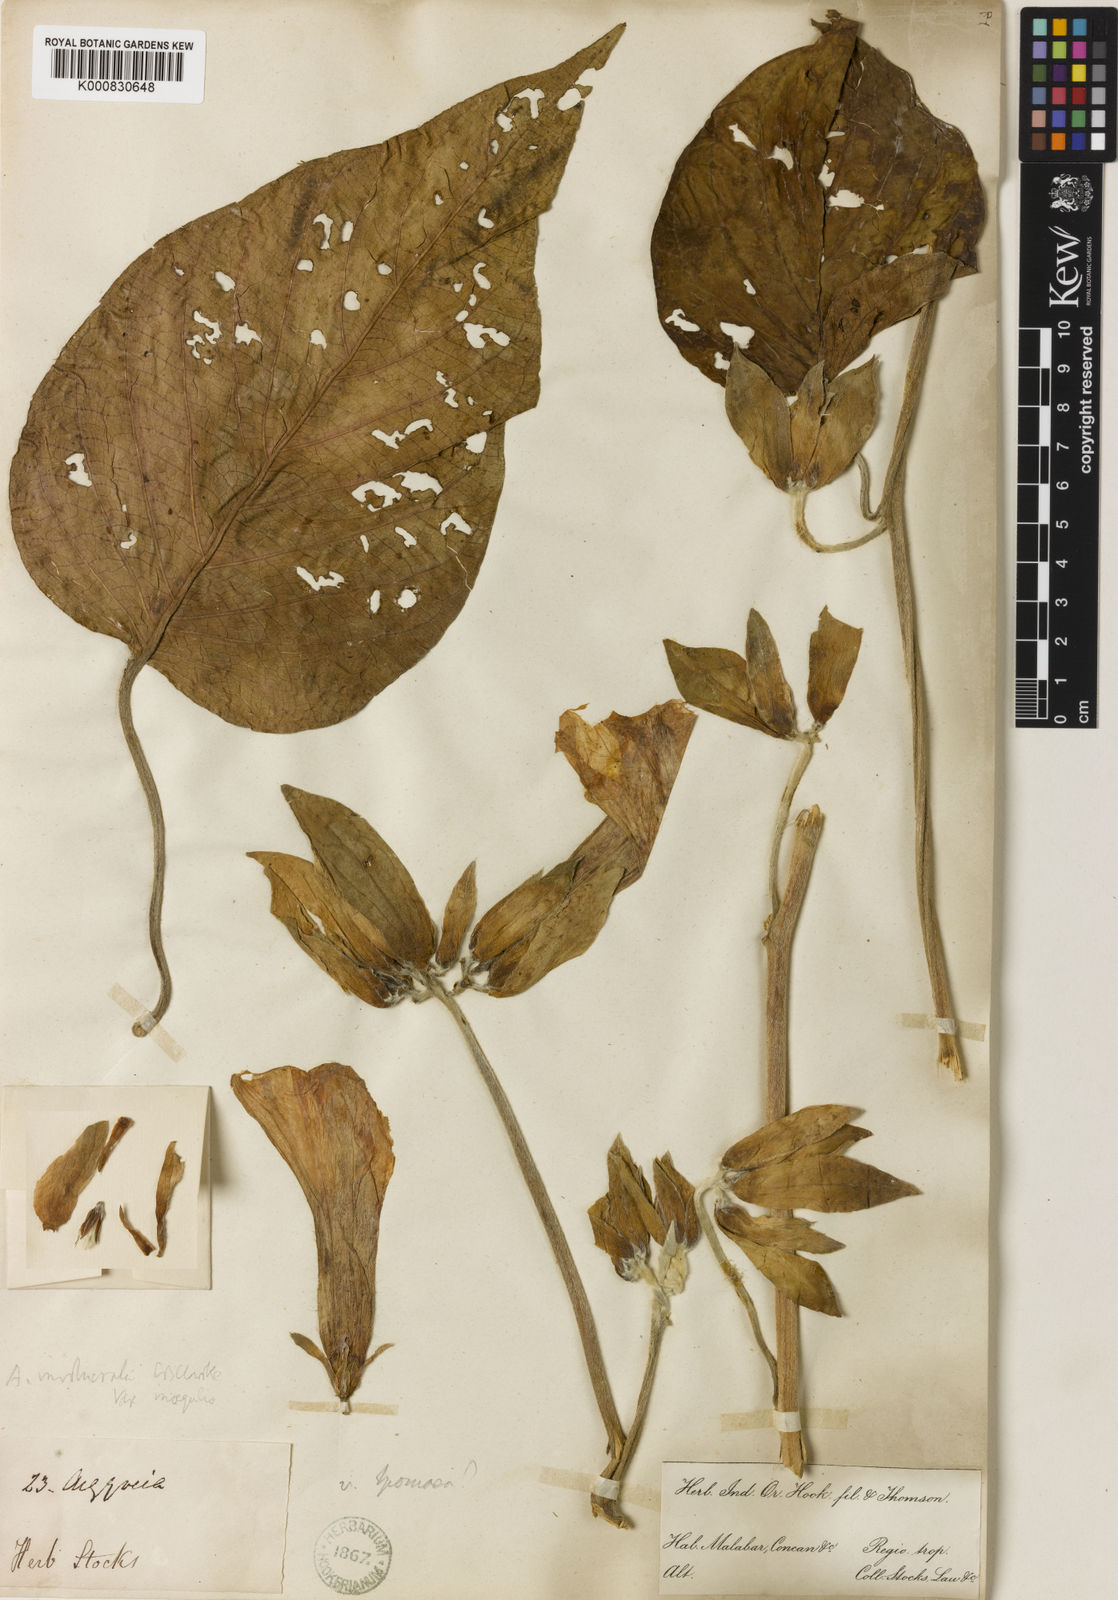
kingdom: Plantae
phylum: Tracheophyta
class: Magnoliopsida
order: Solanales
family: Convolvulaceae
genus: Argyreia
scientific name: Argyreia involucrata
